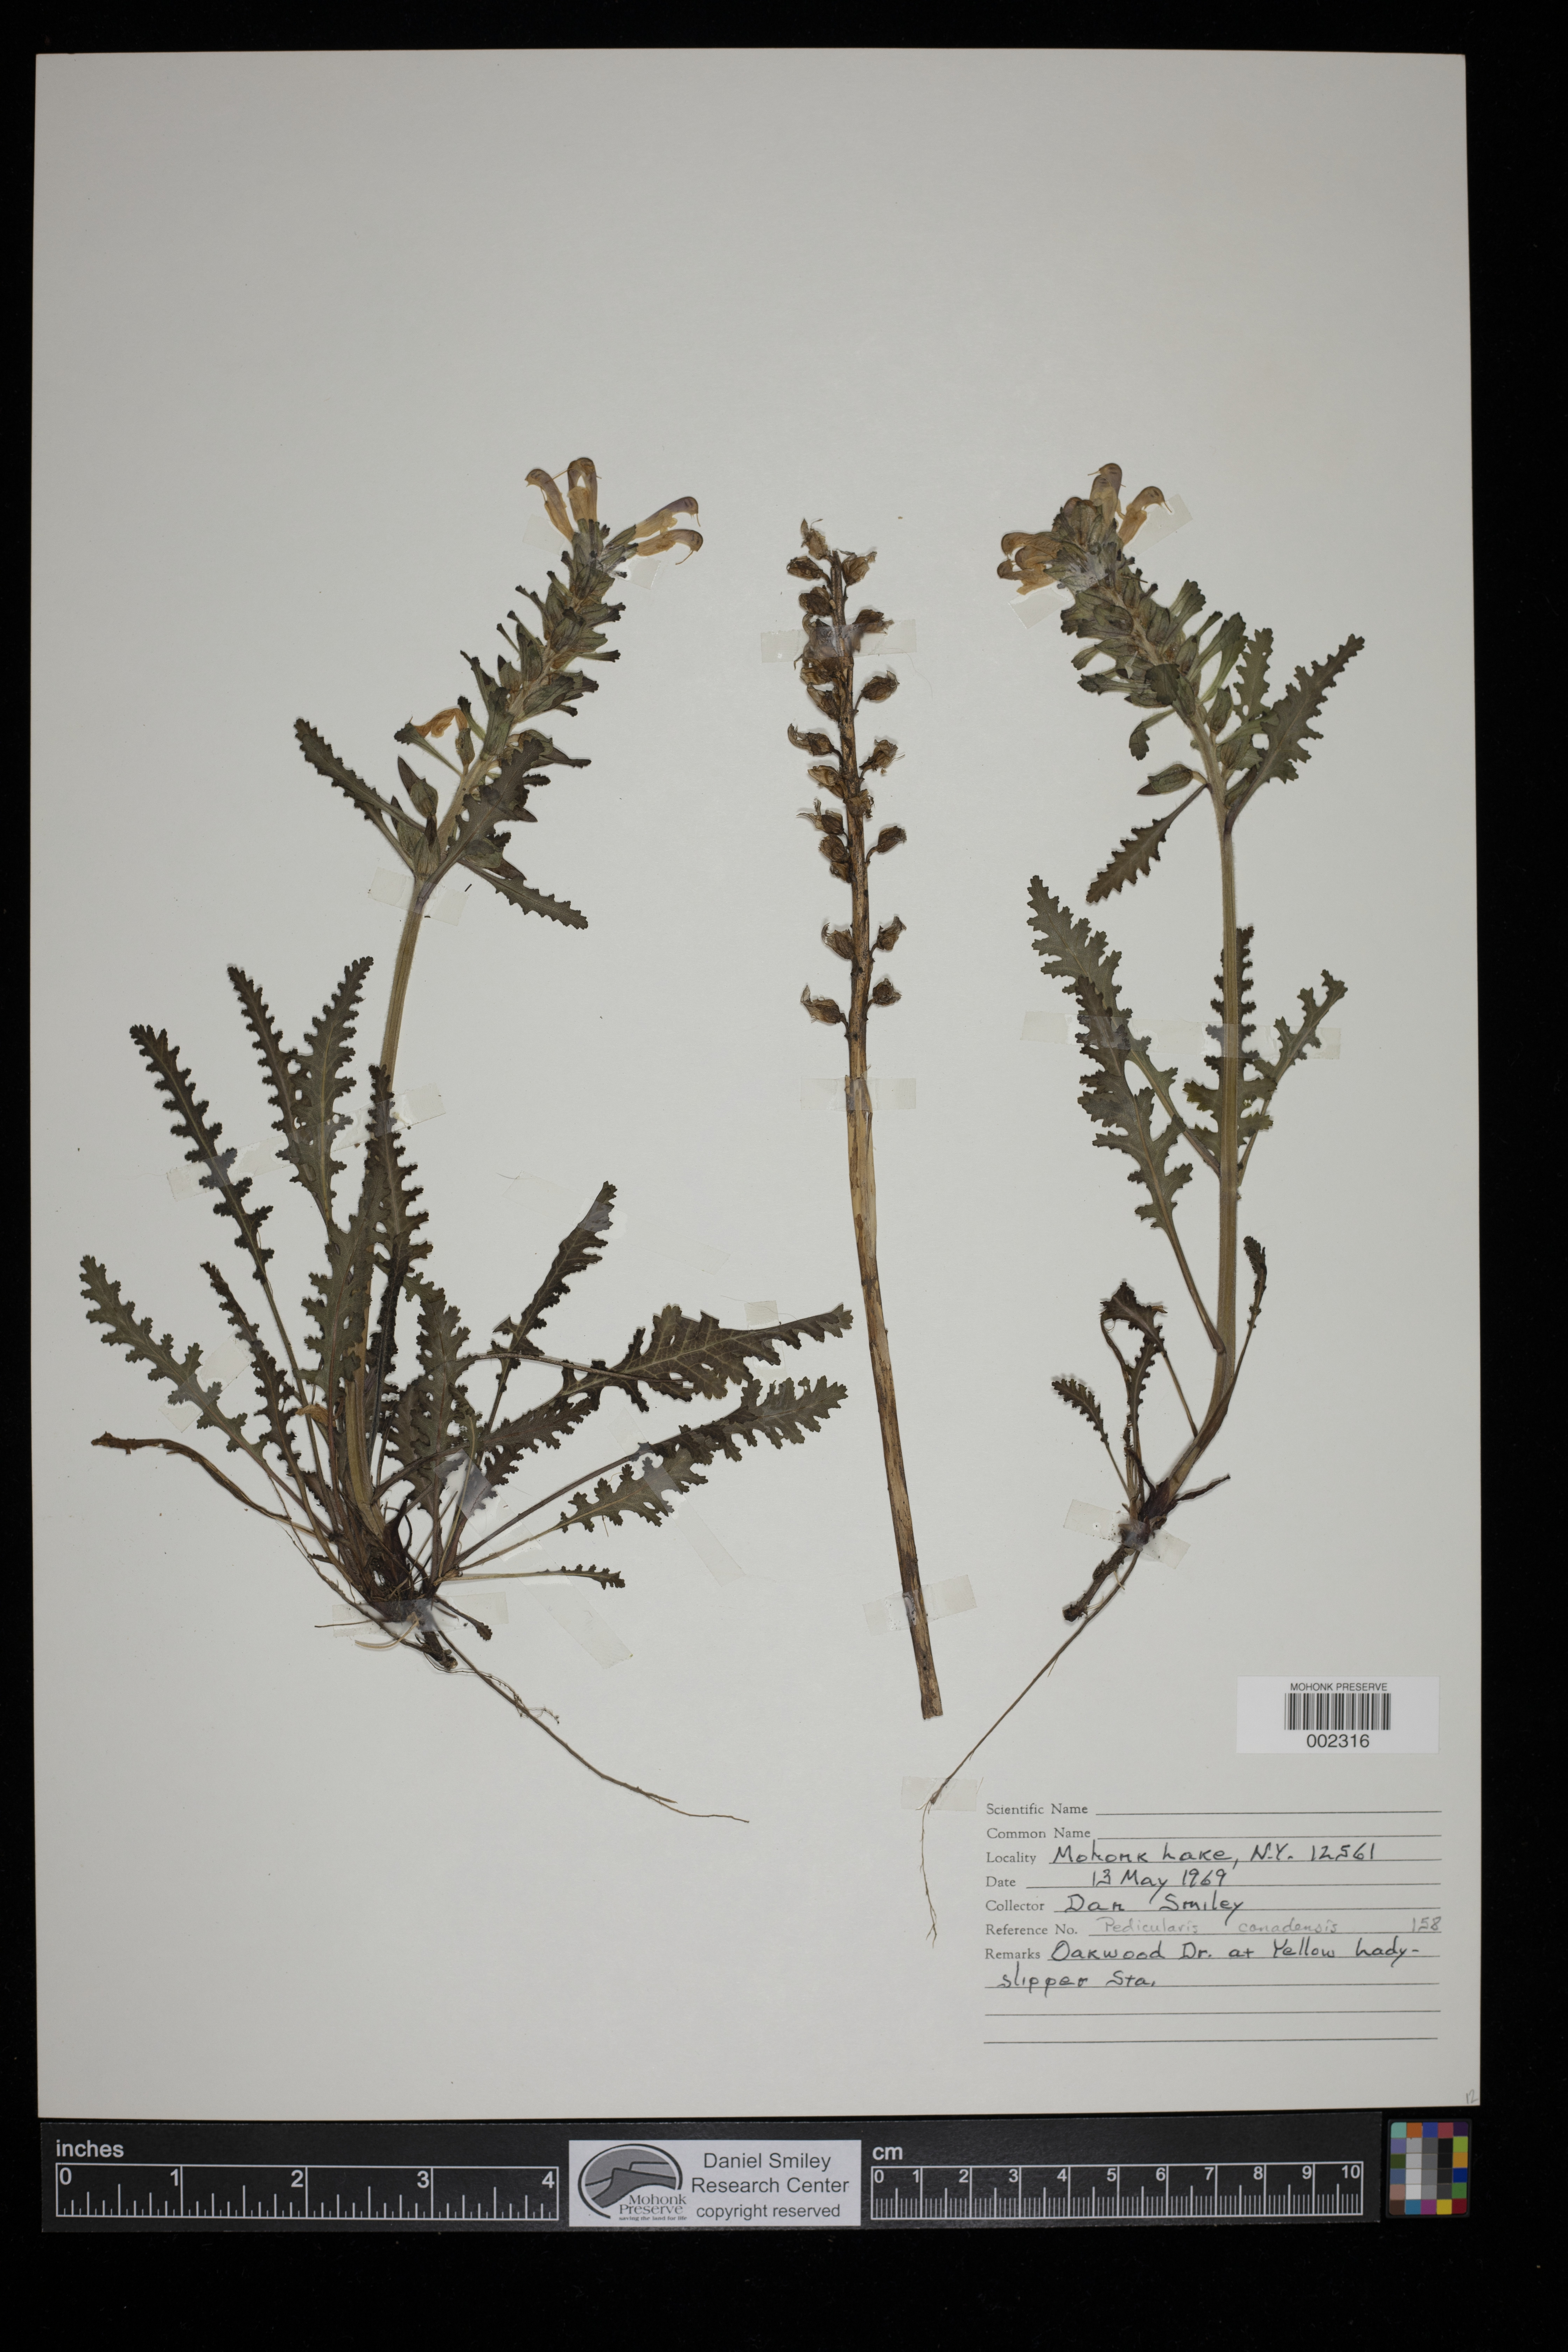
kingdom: Plantae
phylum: Tracheophyta
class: Magnoliopsida
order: Lamiales
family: Orobanchaceae
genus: Pedicularis
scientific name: Pedicularis canadensis
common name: Early lousewort
